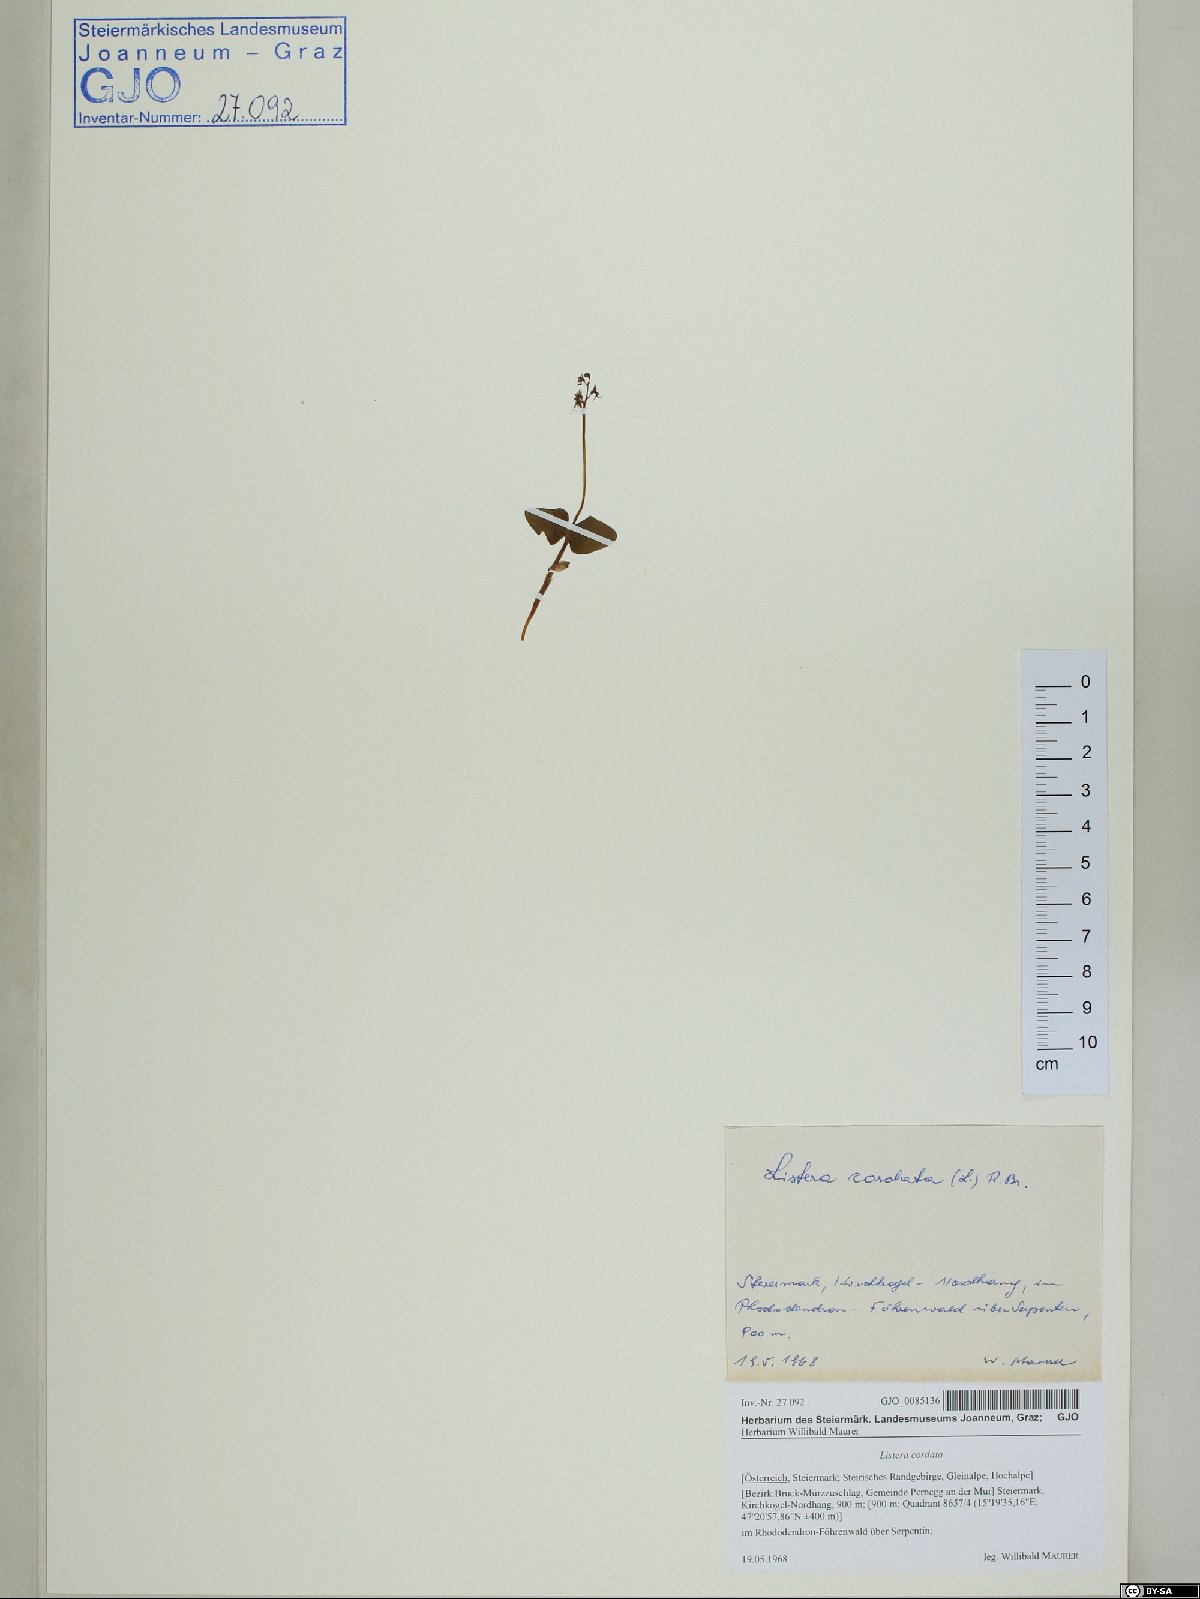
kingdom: Plantae
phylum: Tracheophyta
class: Liliopsida
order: Asparagales
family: Orchidaceae
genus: Neottia
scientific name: Neottia cordata
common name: Lesser twayblade
